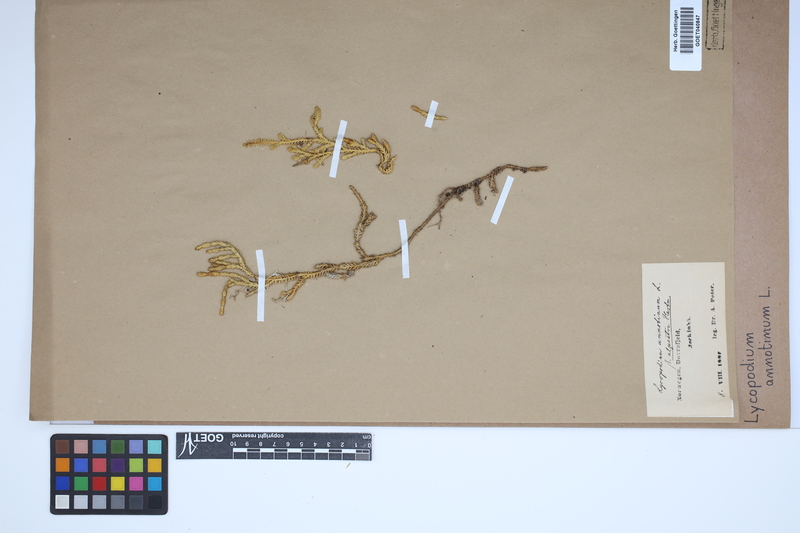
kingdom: Plantae
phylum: Tracheophyta
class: Lycopodiopsida
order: Lycopodiales
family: Lycopodiaceae
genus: Spinulum
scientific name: Spinulum annotinum
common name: Interrupted club-moss
